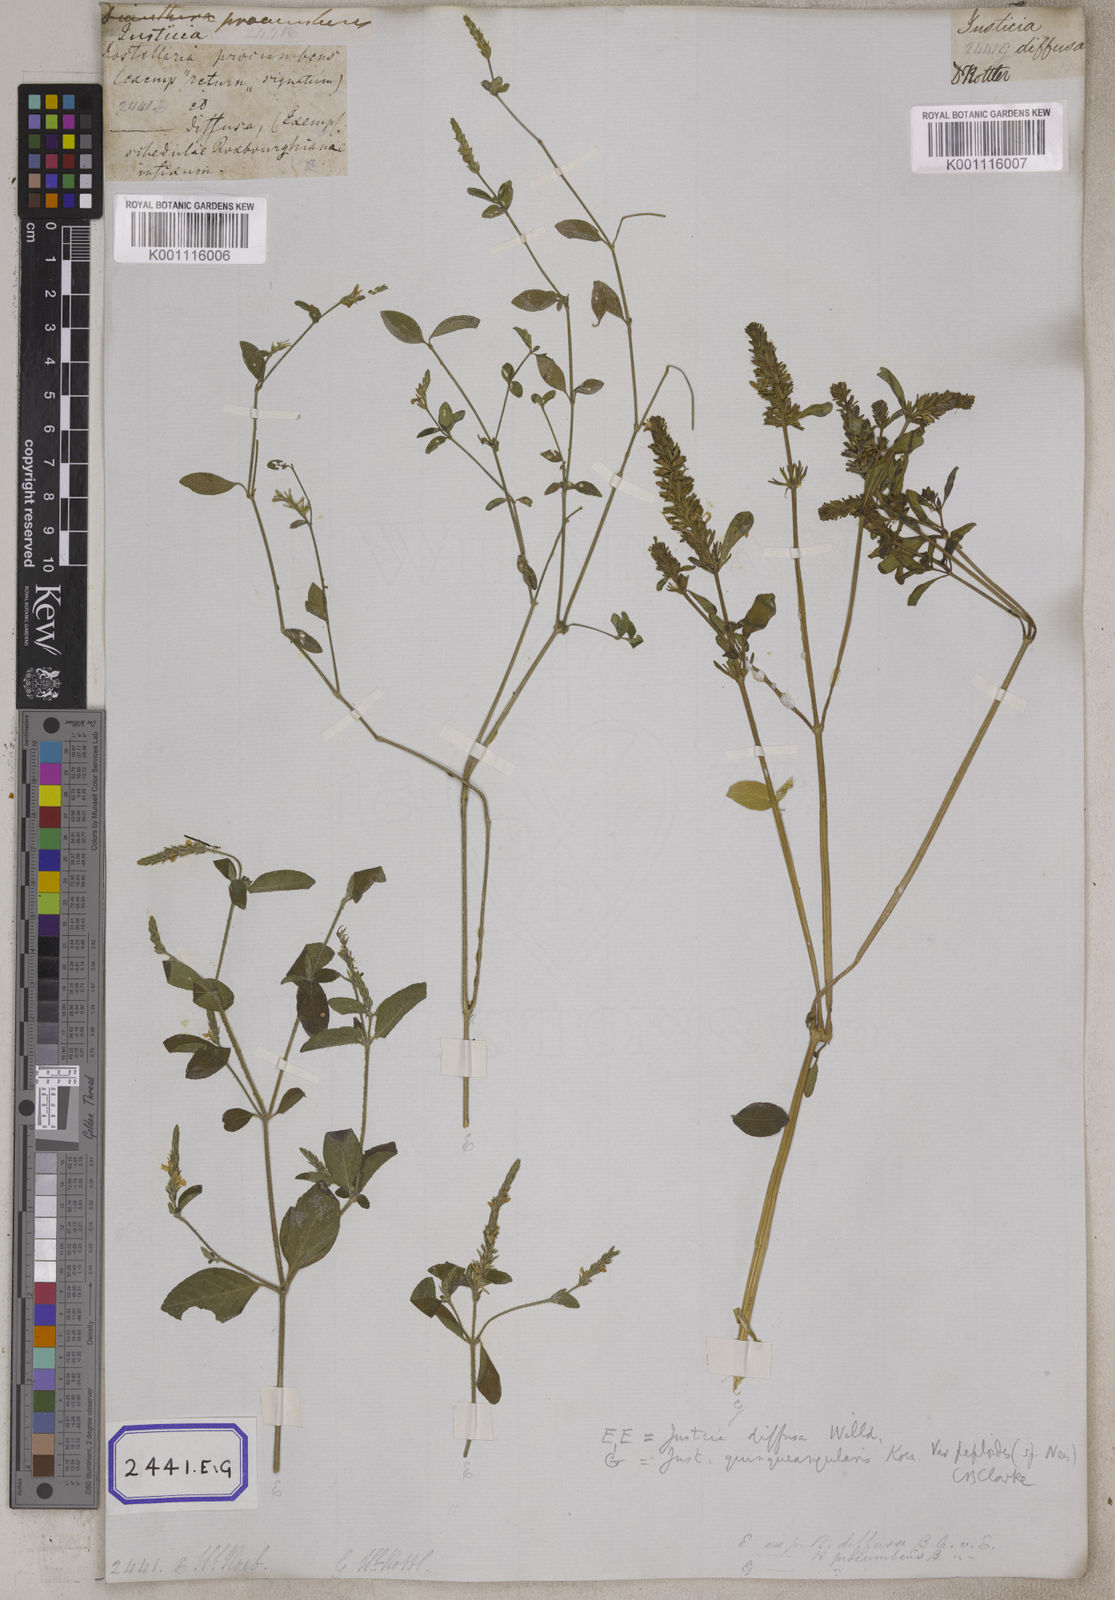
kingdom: Plantae
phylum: Tracheophyta
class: Magnoliopsida
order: Lamiales
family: Acanthaceae
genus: Rostellularia
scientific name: Rostellularia procumbens
